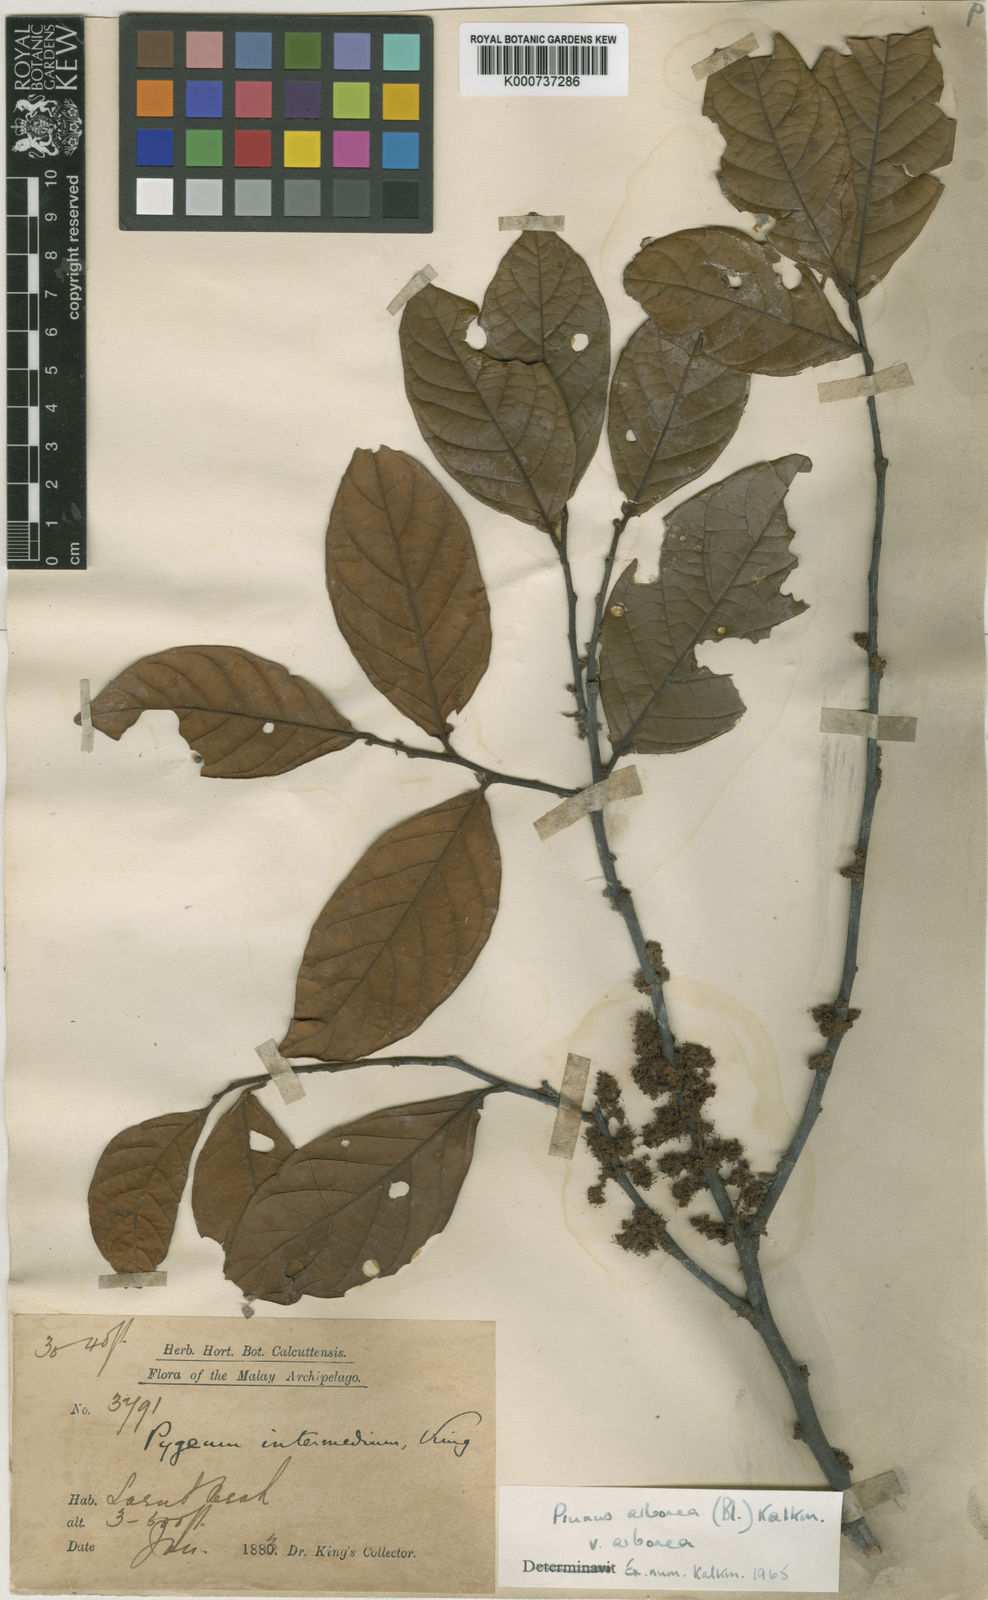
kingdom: Plantae
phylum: Tracheophyta
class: Magnoliopsida
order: Rosales
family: Rosaceae
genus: Prunus
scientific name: Prunus arborea
